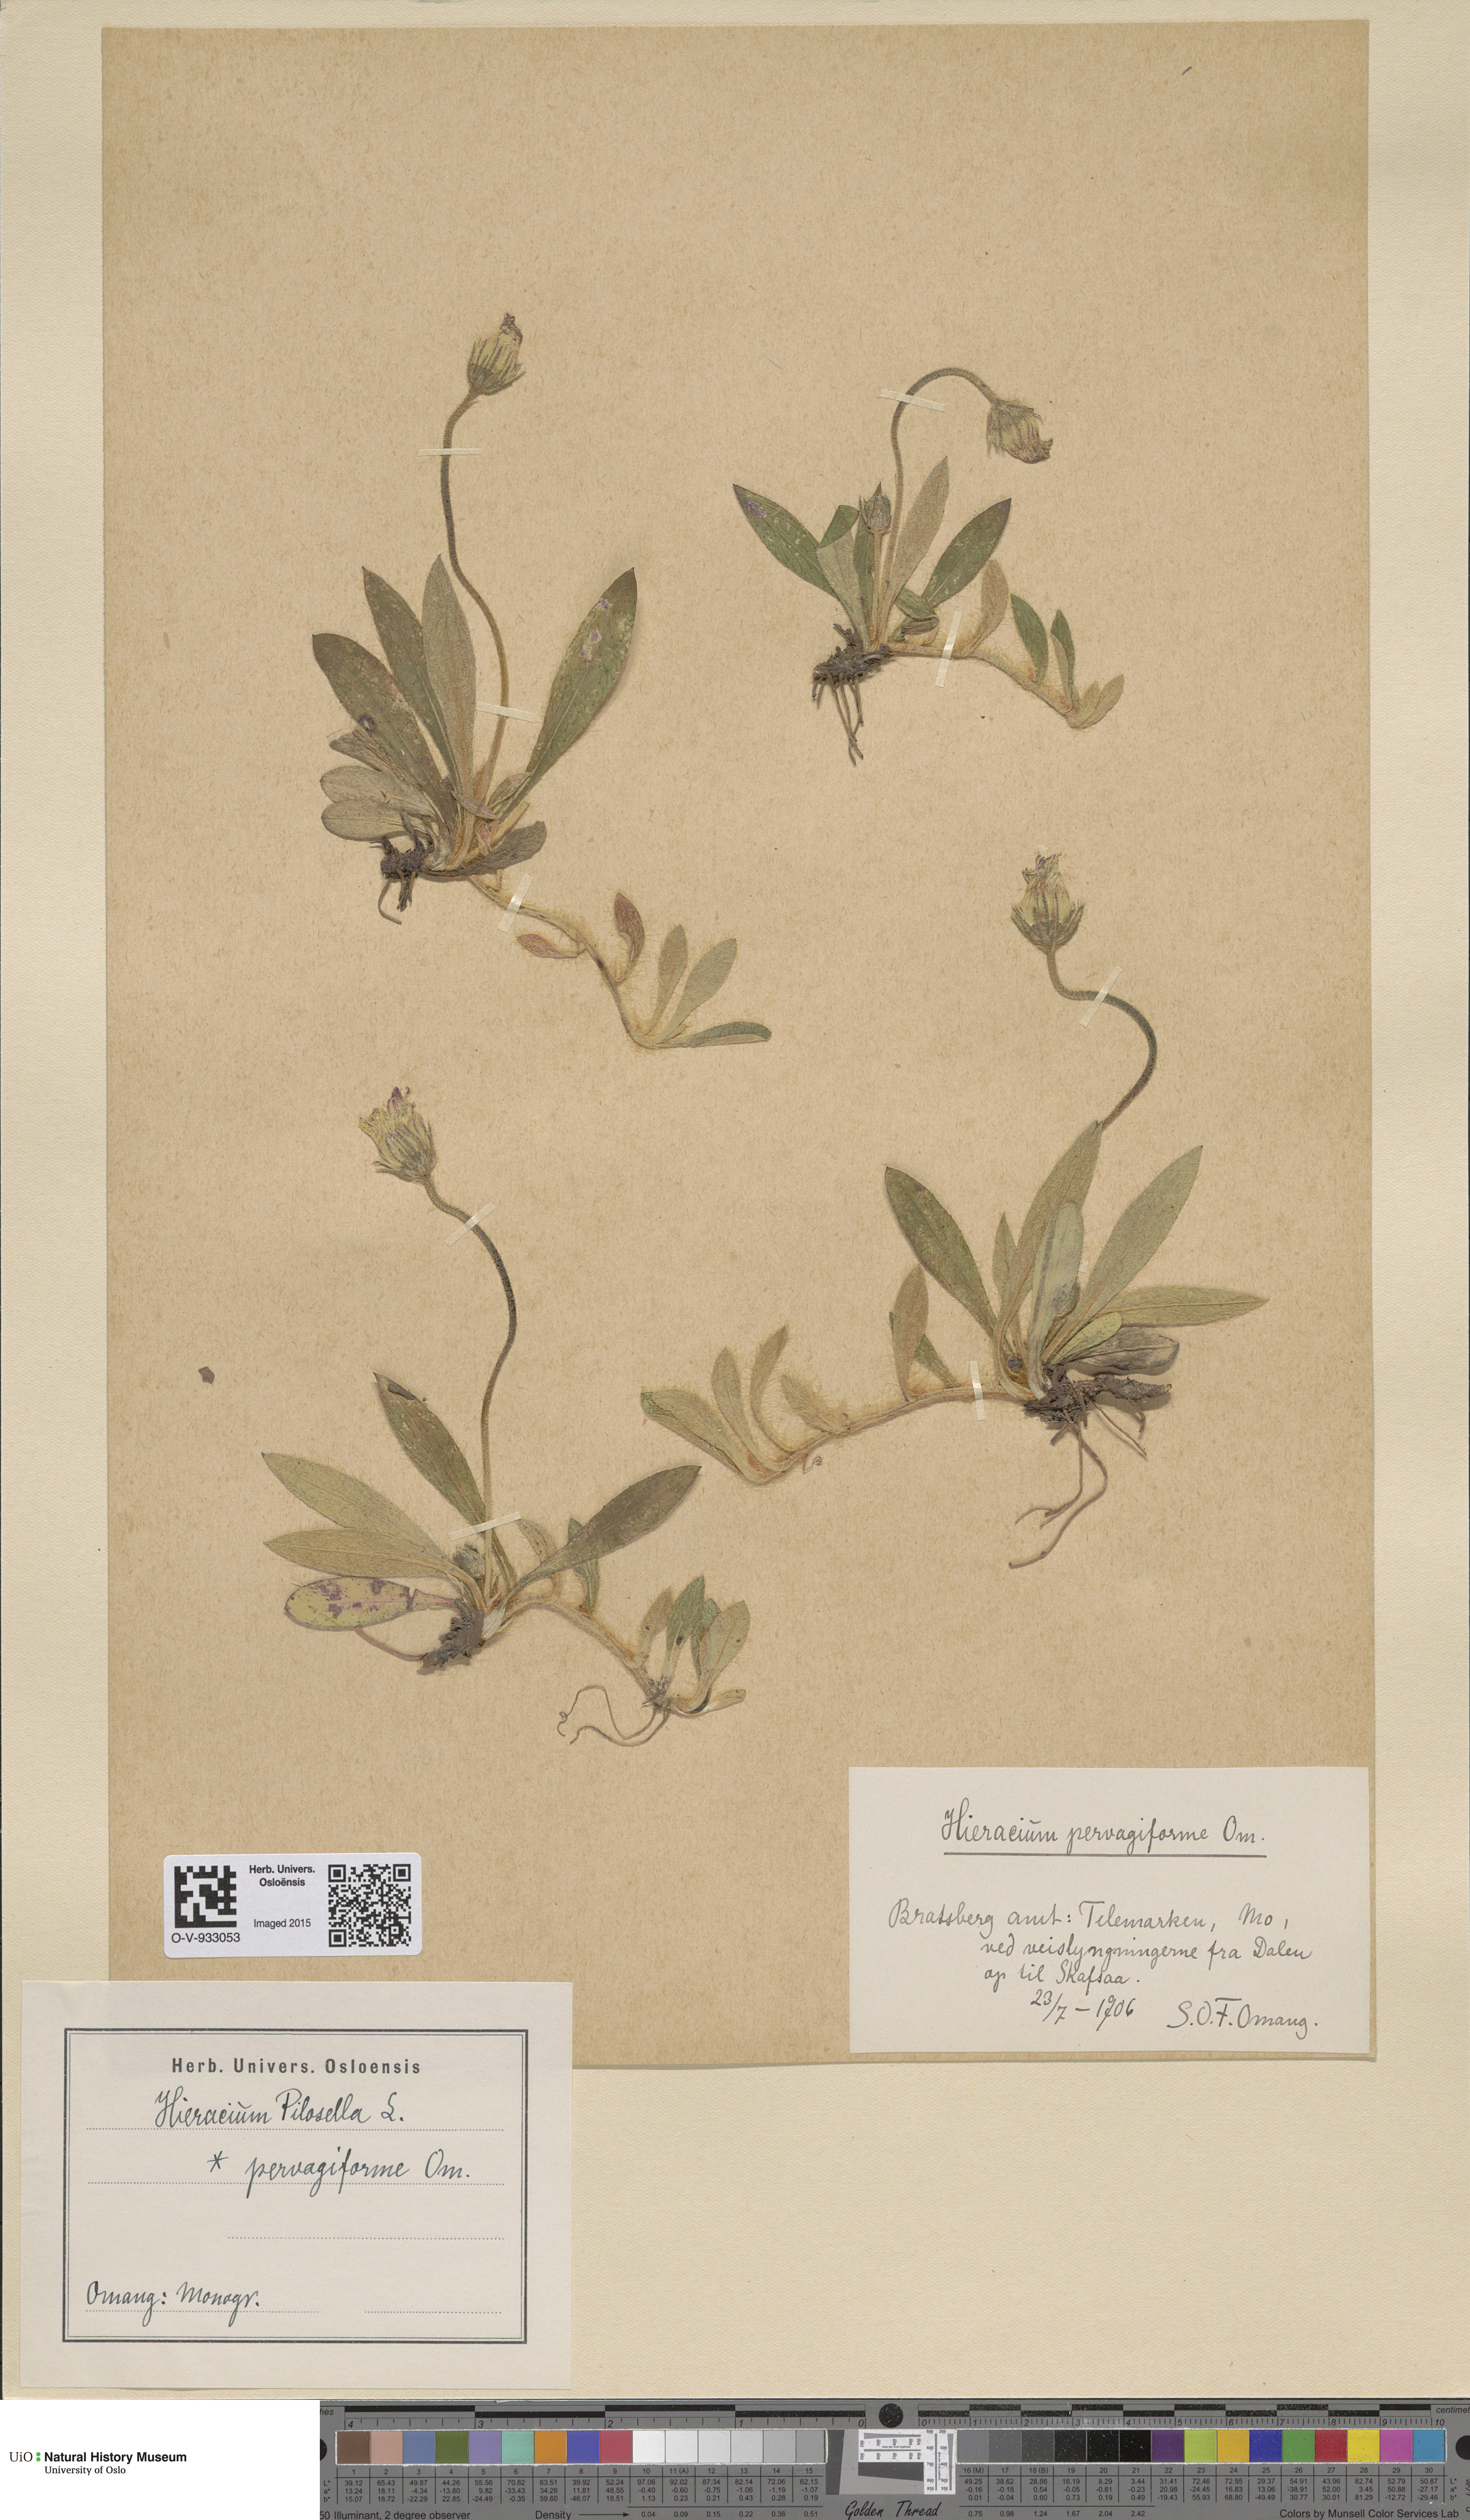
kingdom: Plantae
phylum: Tracheophyta
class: Magnoliopsida
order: Asterales
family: Asteraceae
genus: Pilosella
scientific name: Pilosella officinarum
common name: Mouse-ear hawkweed
